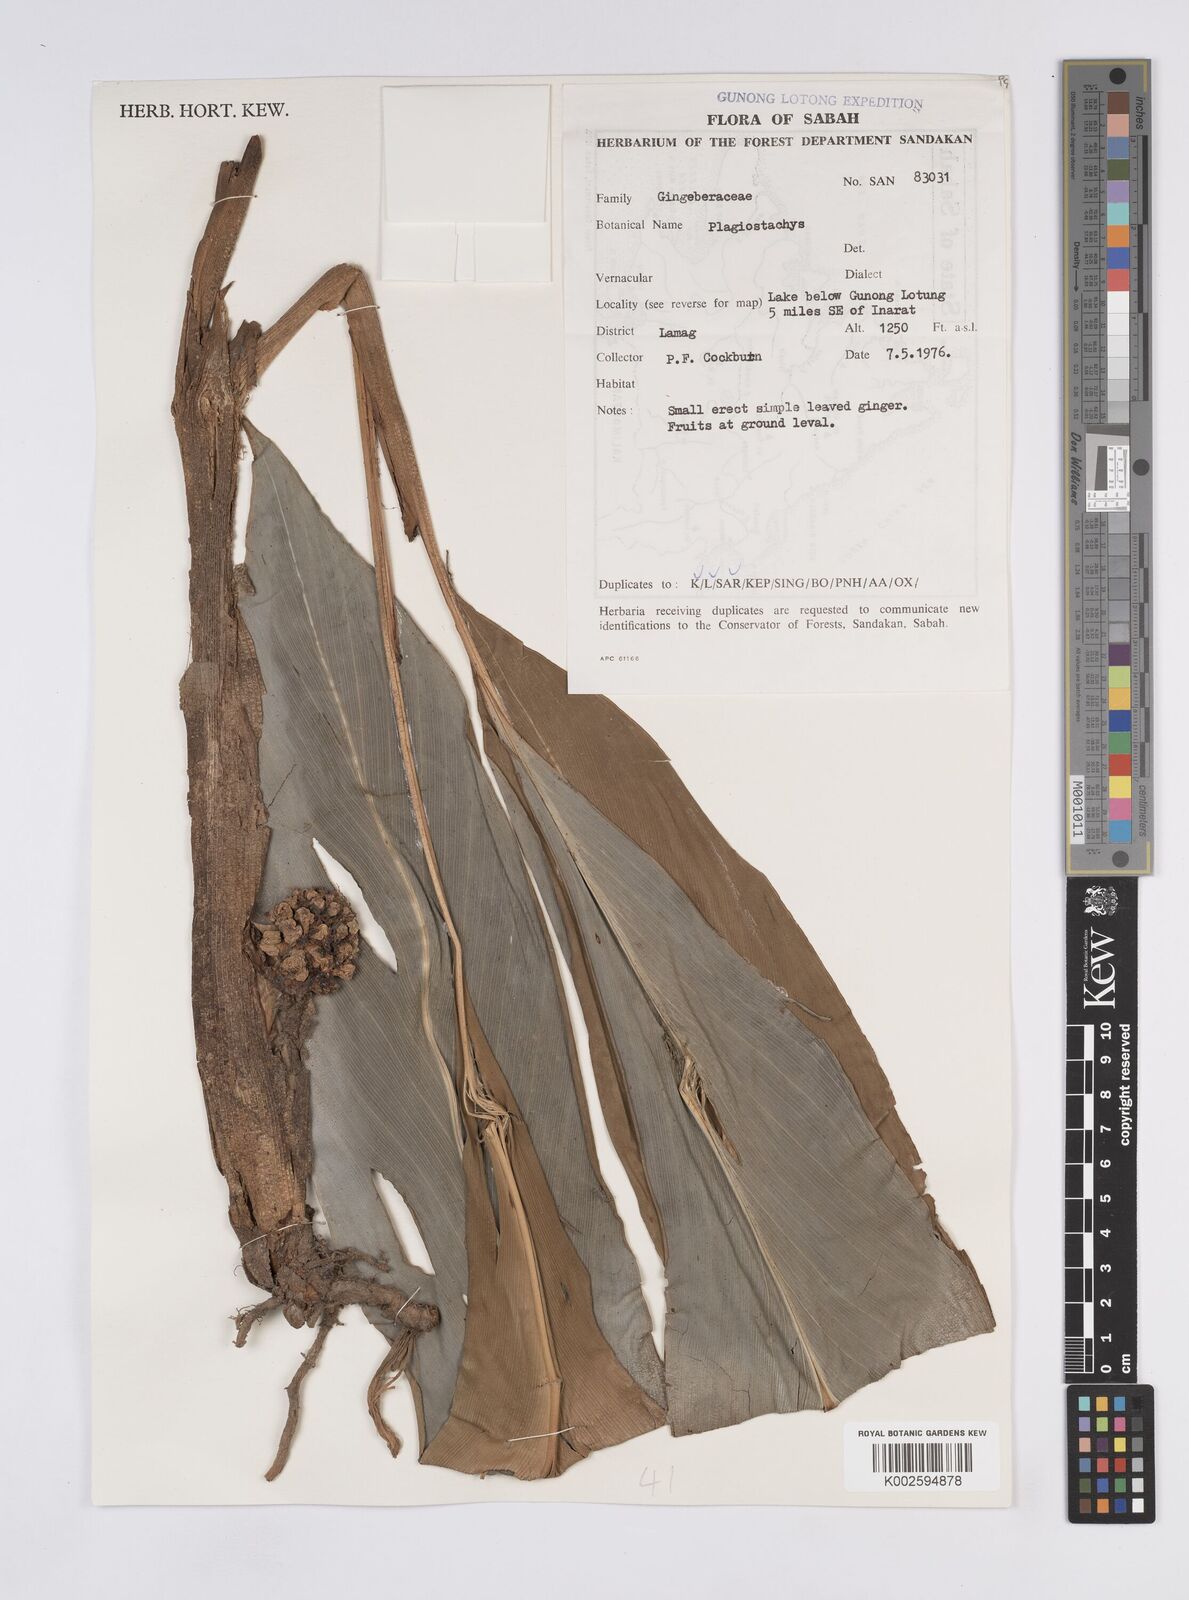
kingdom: Plantae
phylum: Tracheophyta
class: Liliopsida
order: Zingiberales
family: Zingiberaceae
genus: Plagiostachys
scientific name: Plagiostachys albiflora
